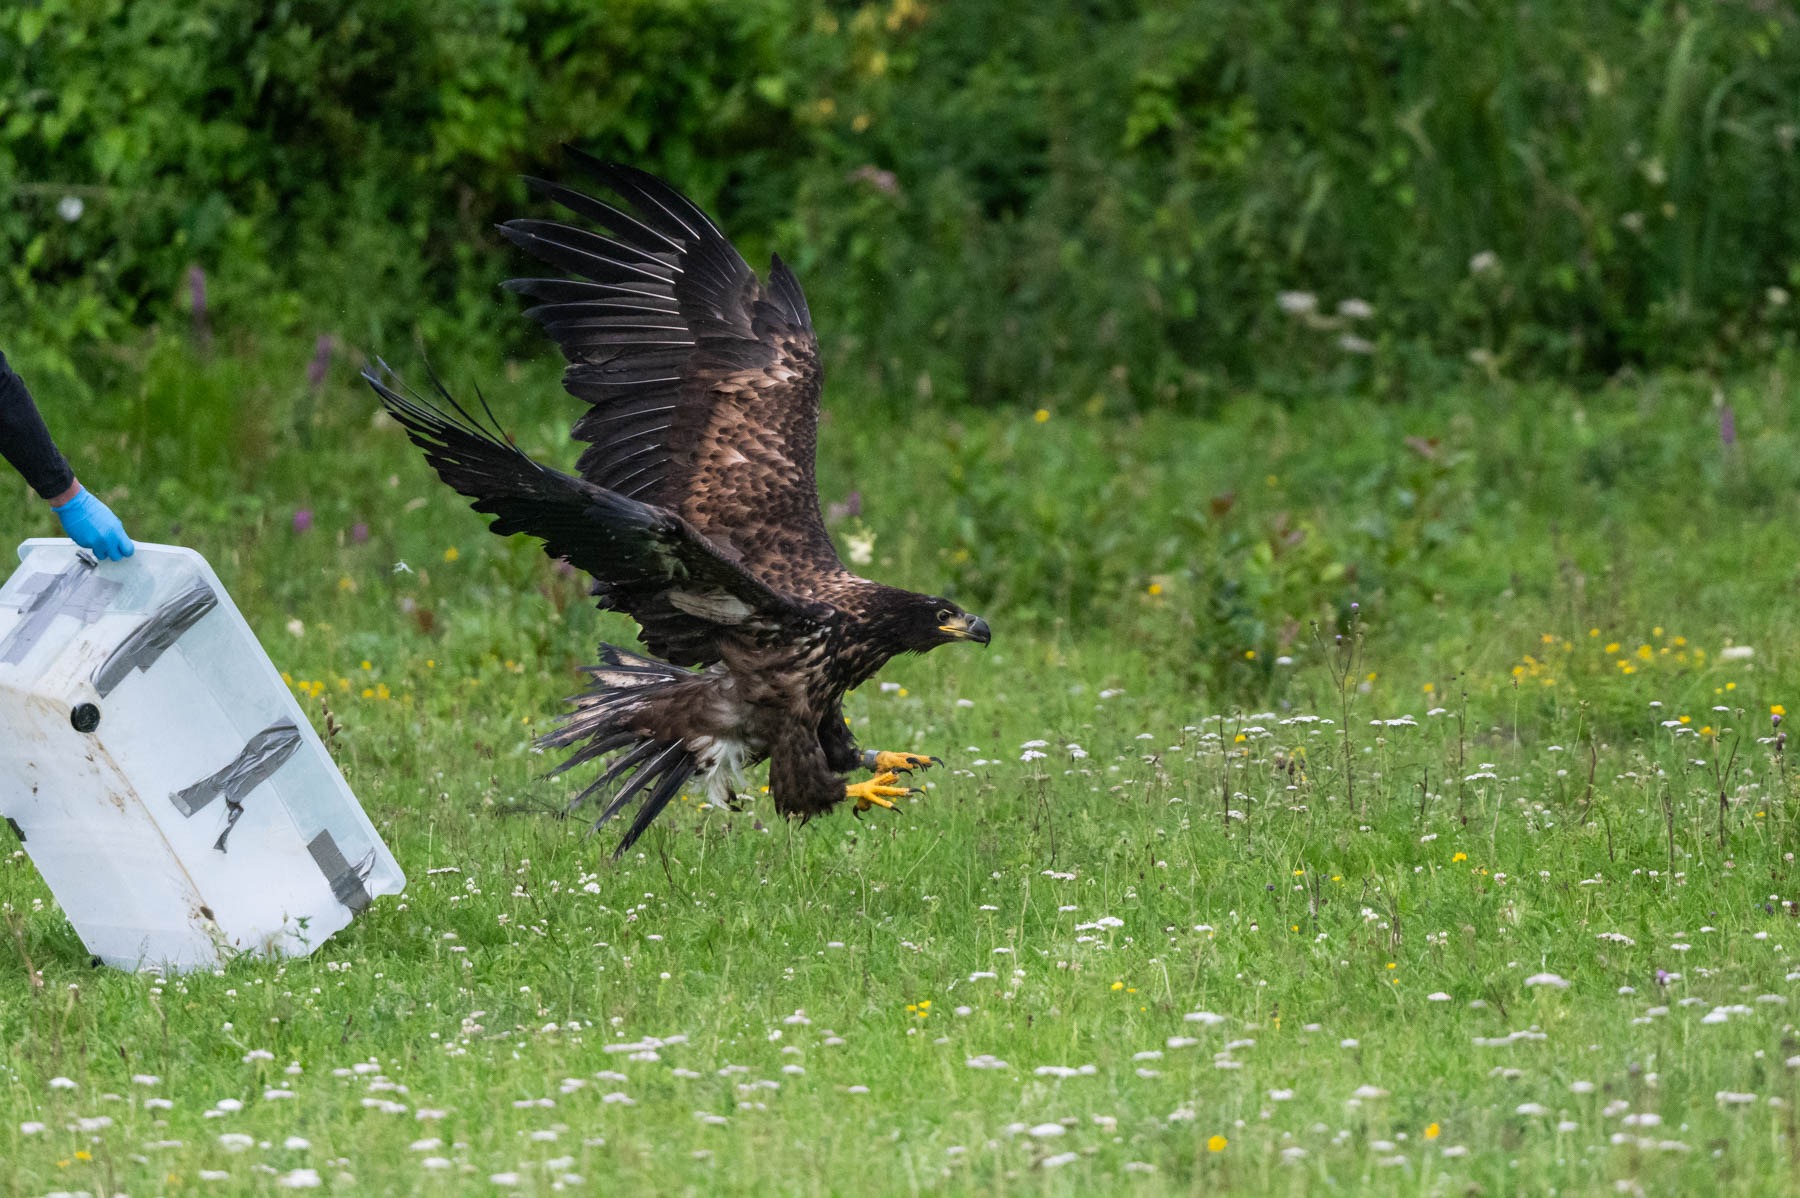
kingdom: Animalia
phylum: Chordata
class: Aves
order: Accipitriformes
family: Accipitridae
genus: Haliaeetus
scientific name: Haliaeetus albicilla
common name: Havørn
